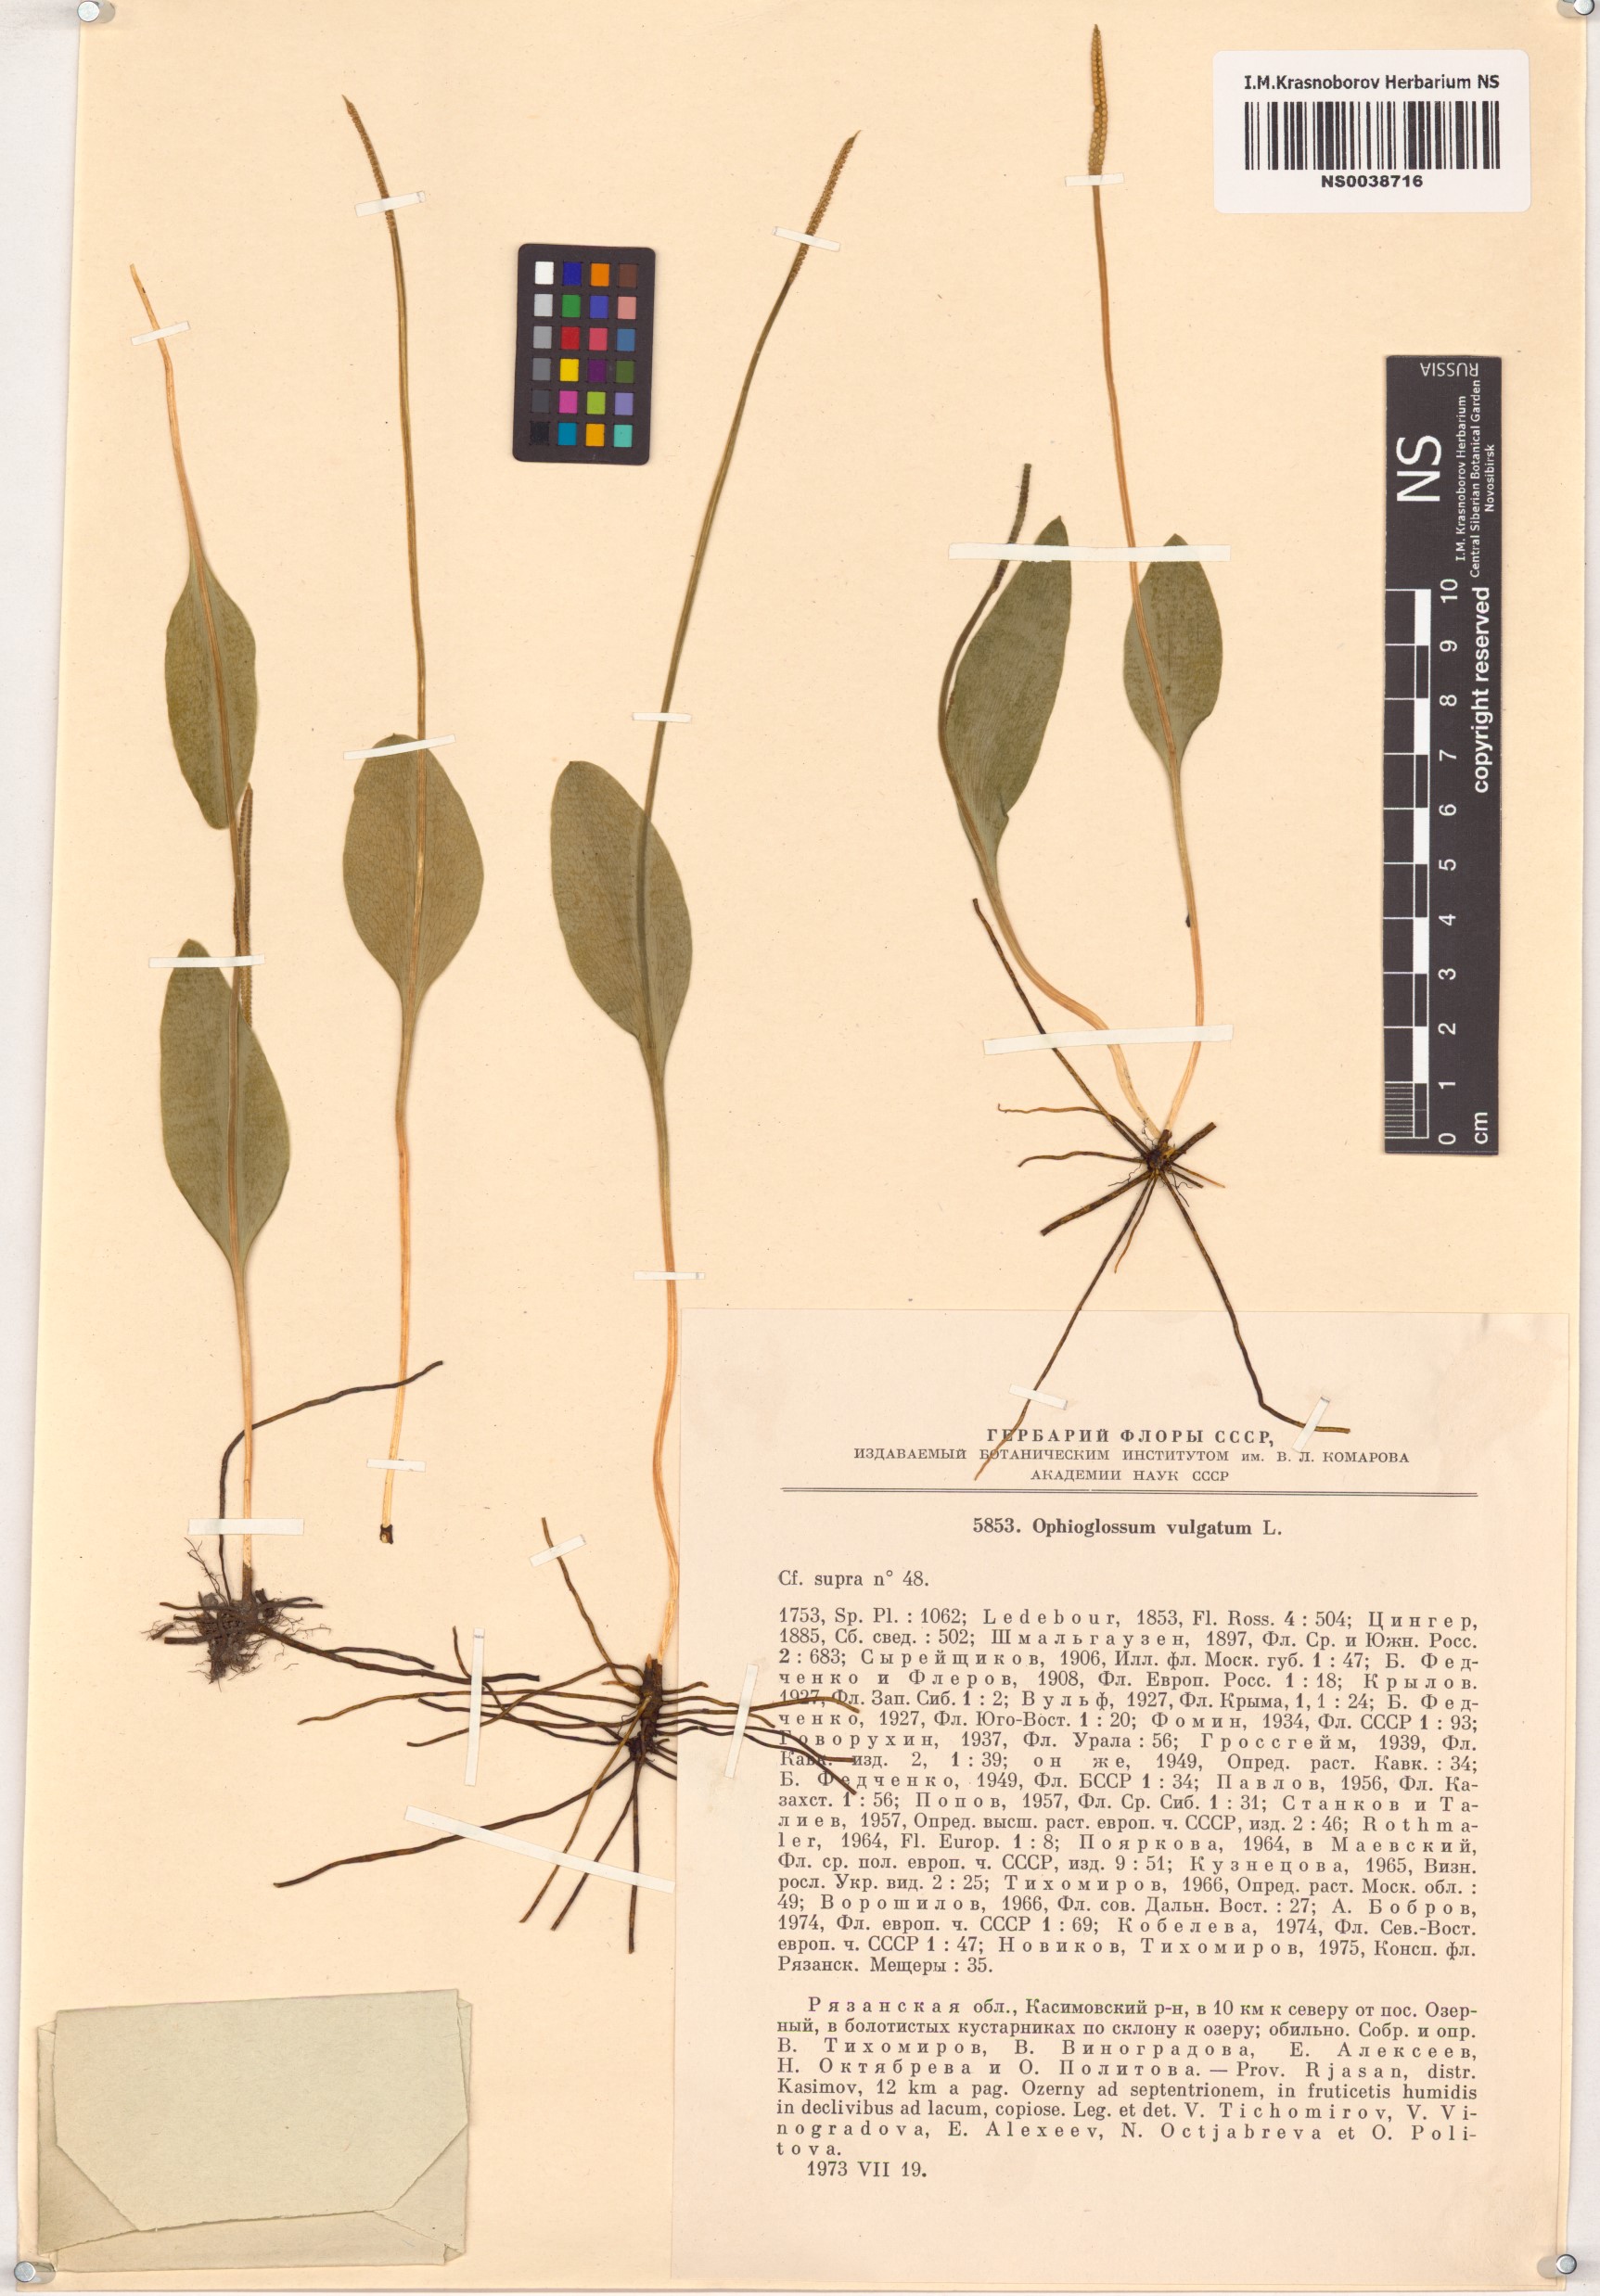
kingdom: Plantae
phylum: Tracheophyta
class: Polypodiopsida
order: Ophioglossales
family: Ophioglossaceae
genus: Ophioglossum
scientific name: Ophioglossum vulgatum
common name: Adder's-tongue
